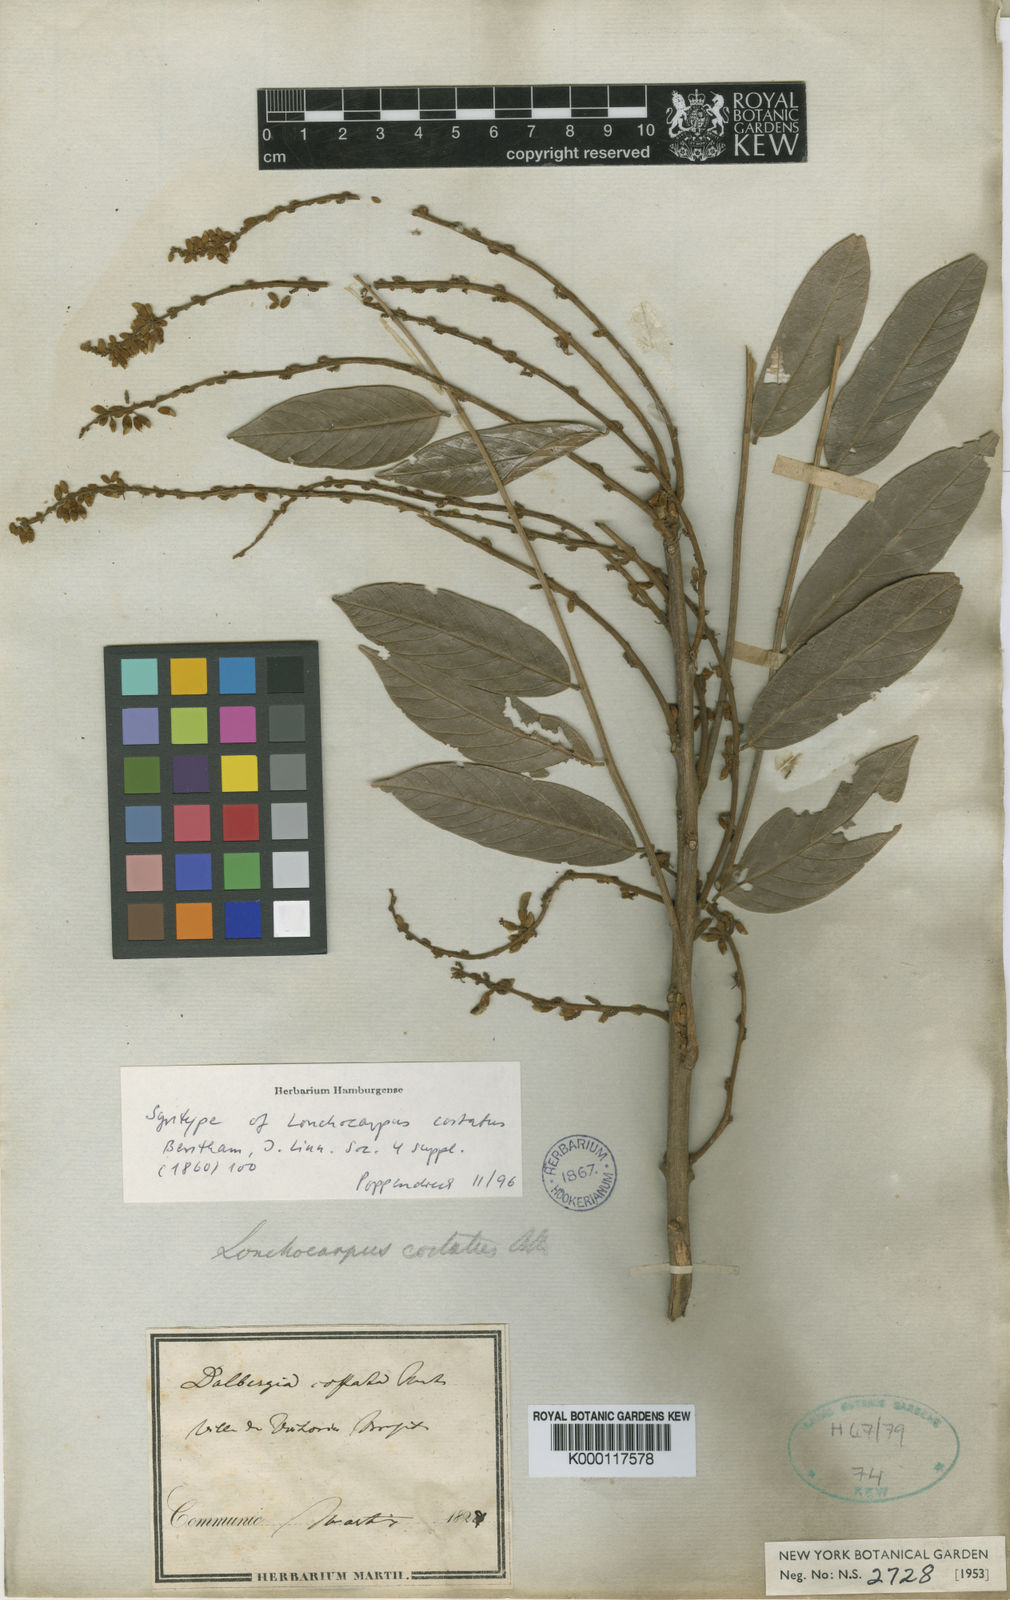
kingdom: Plantae
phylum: Tracheophyta
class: Magnoliopsida
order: Fabales
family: Fabaceae
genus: Deguelia
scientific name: Deguelia costata
